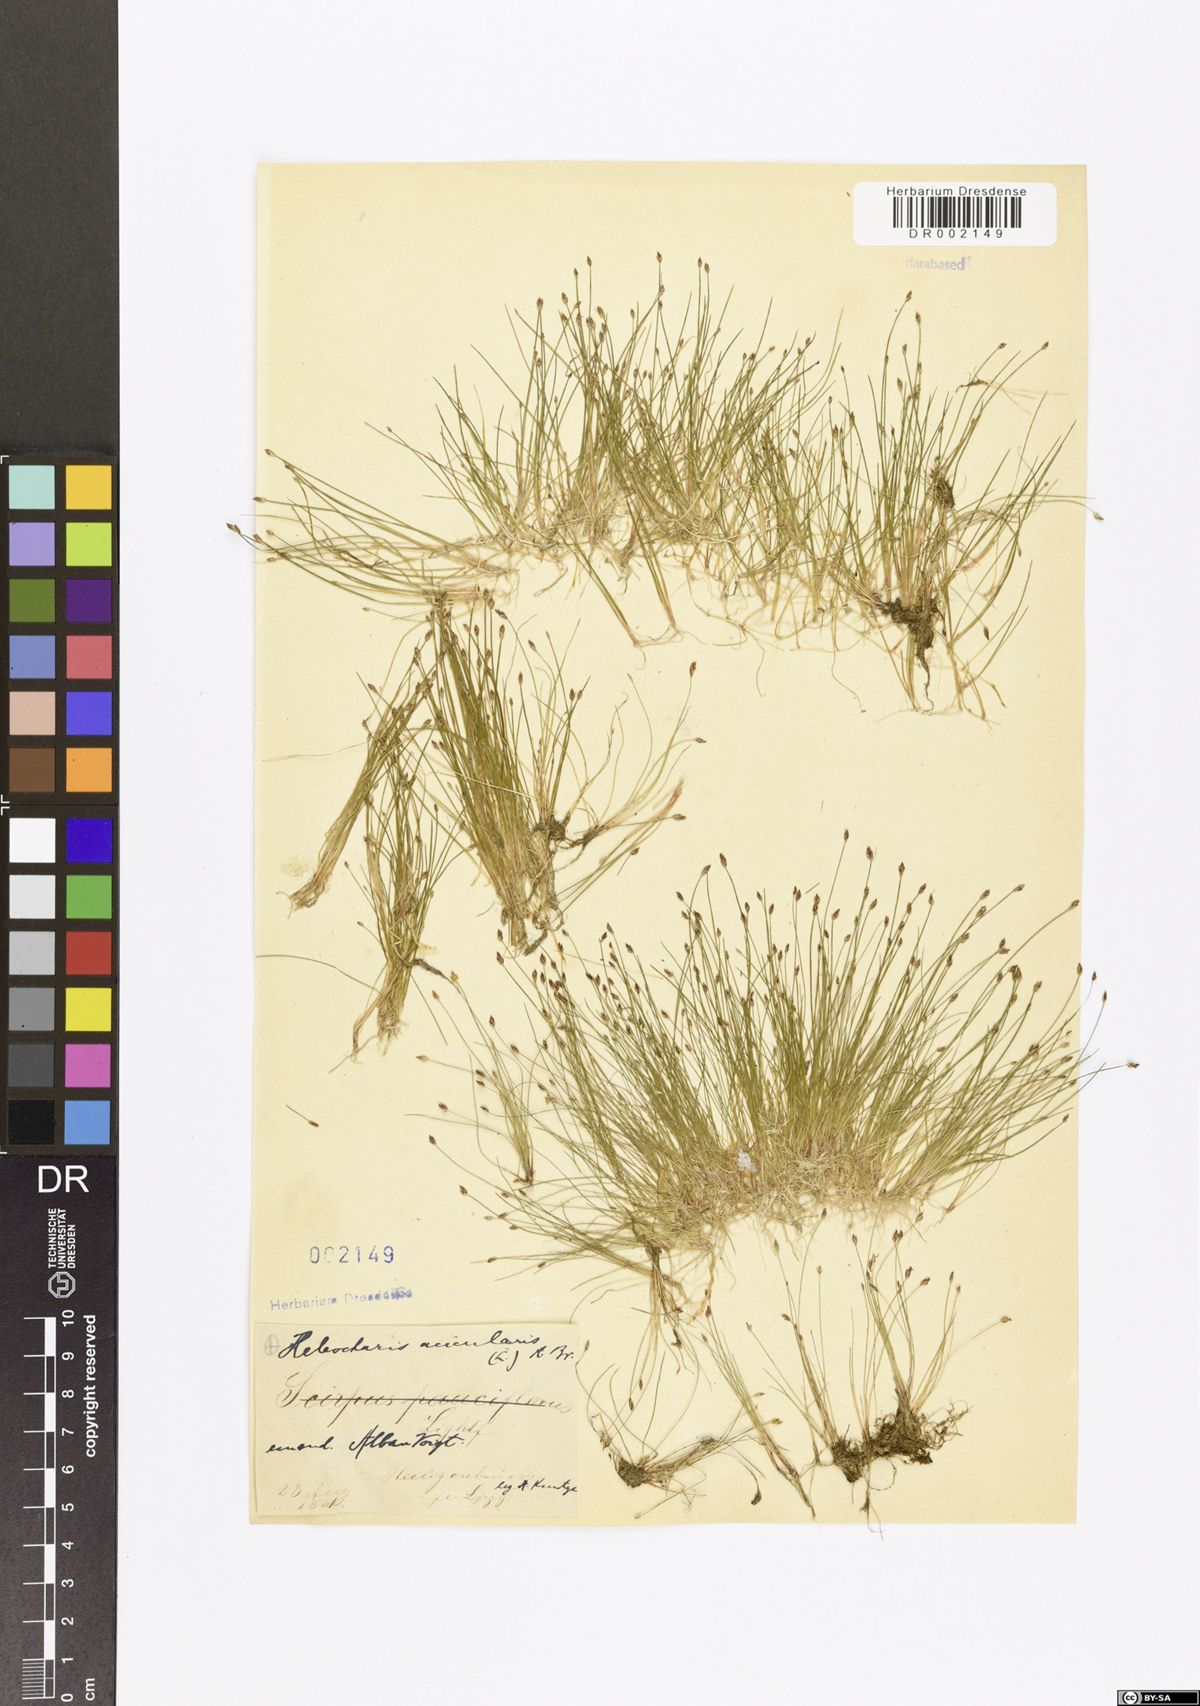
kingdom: Plantae
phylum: Tracheophyta
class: Liliopsida
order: Poales
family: Cyperaceae
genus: Eleocharis
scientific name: Eleocharis acicularis
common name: Needle spike-rush
